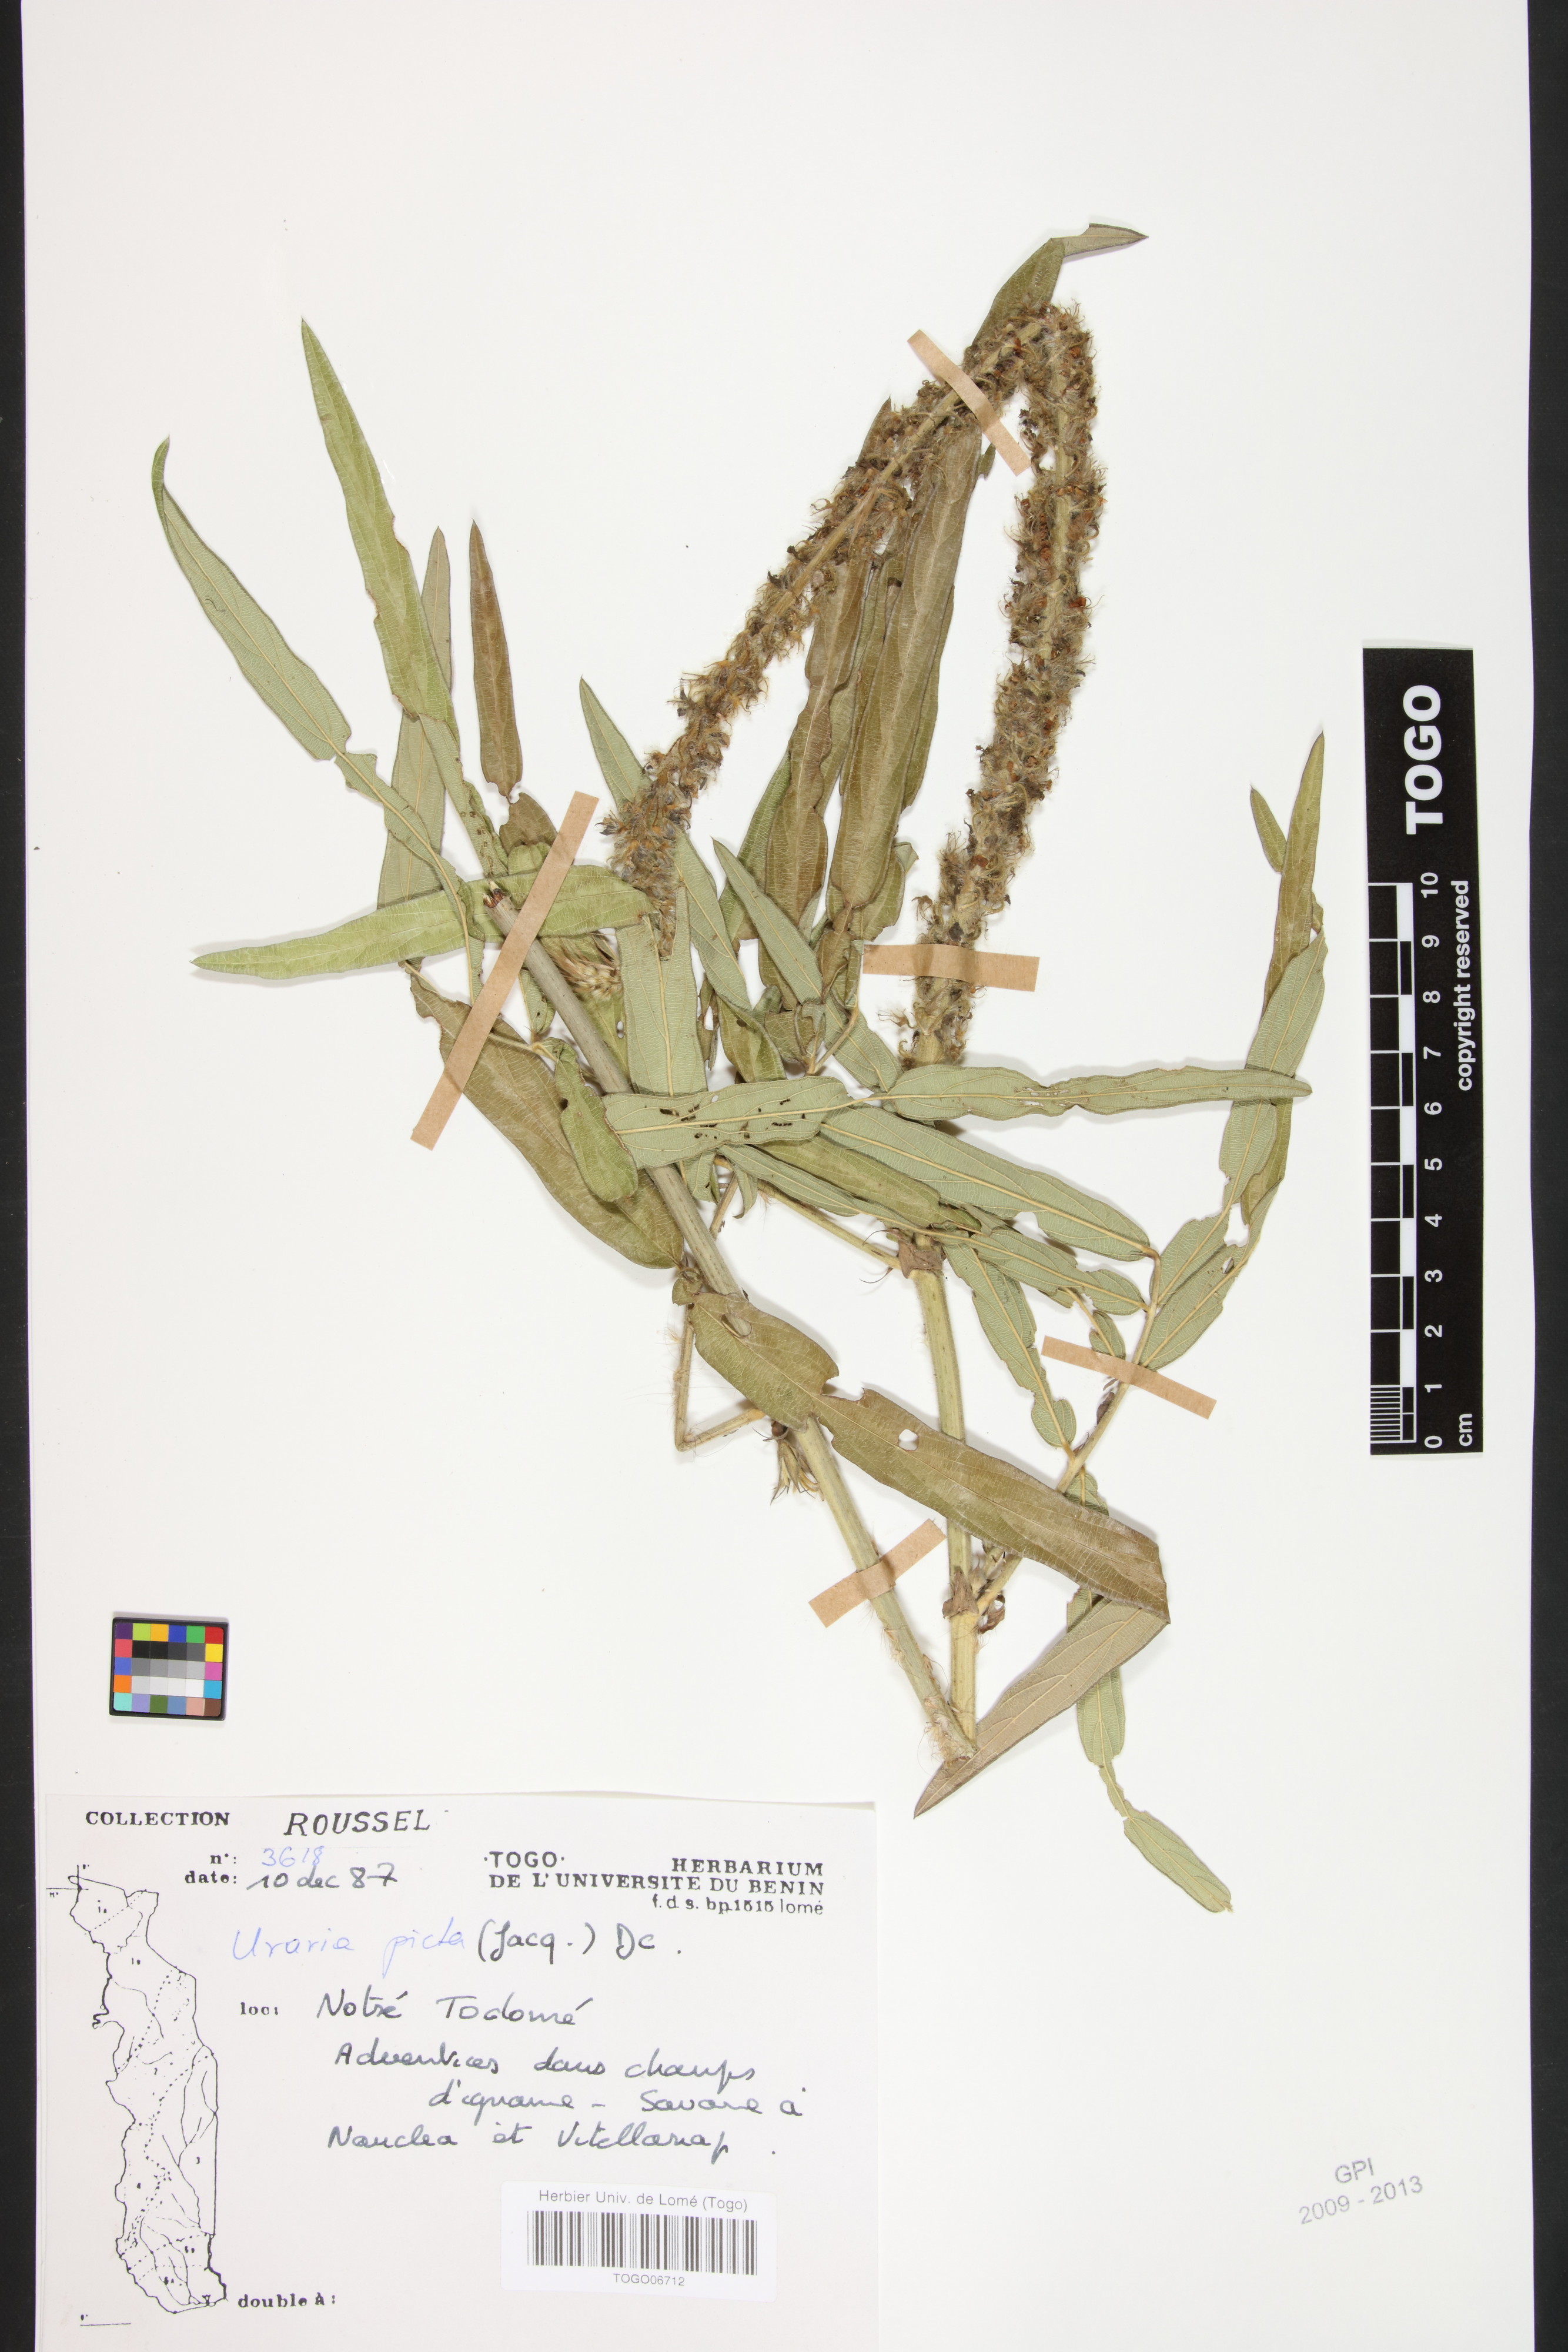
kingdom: Plantae
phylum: Tracheophyta
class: Magnoliopsida
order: Fabales
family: Fabaceae
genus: Uraria
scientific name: Uraria picta
